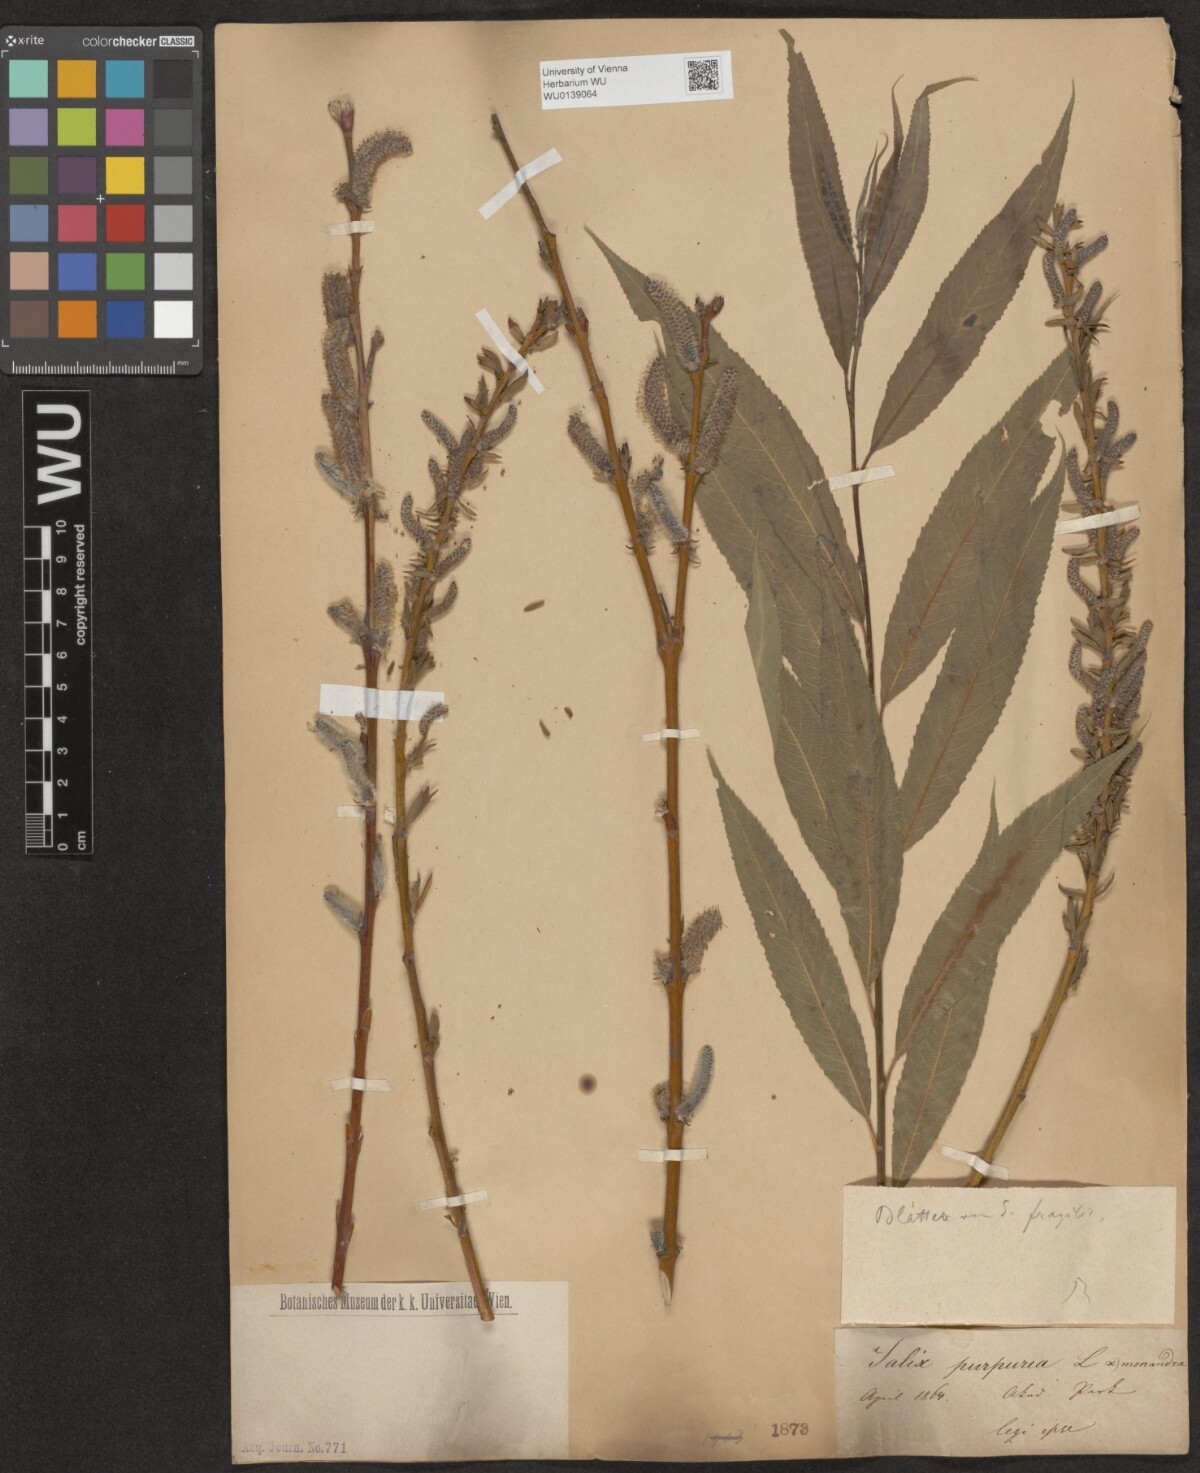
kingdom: Plantae
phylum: Tracheophyta
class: Magnoliopsida
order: Malpighiales
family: Salicaceae
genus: Salix
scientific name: Salix purpurea
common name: Purple willow
